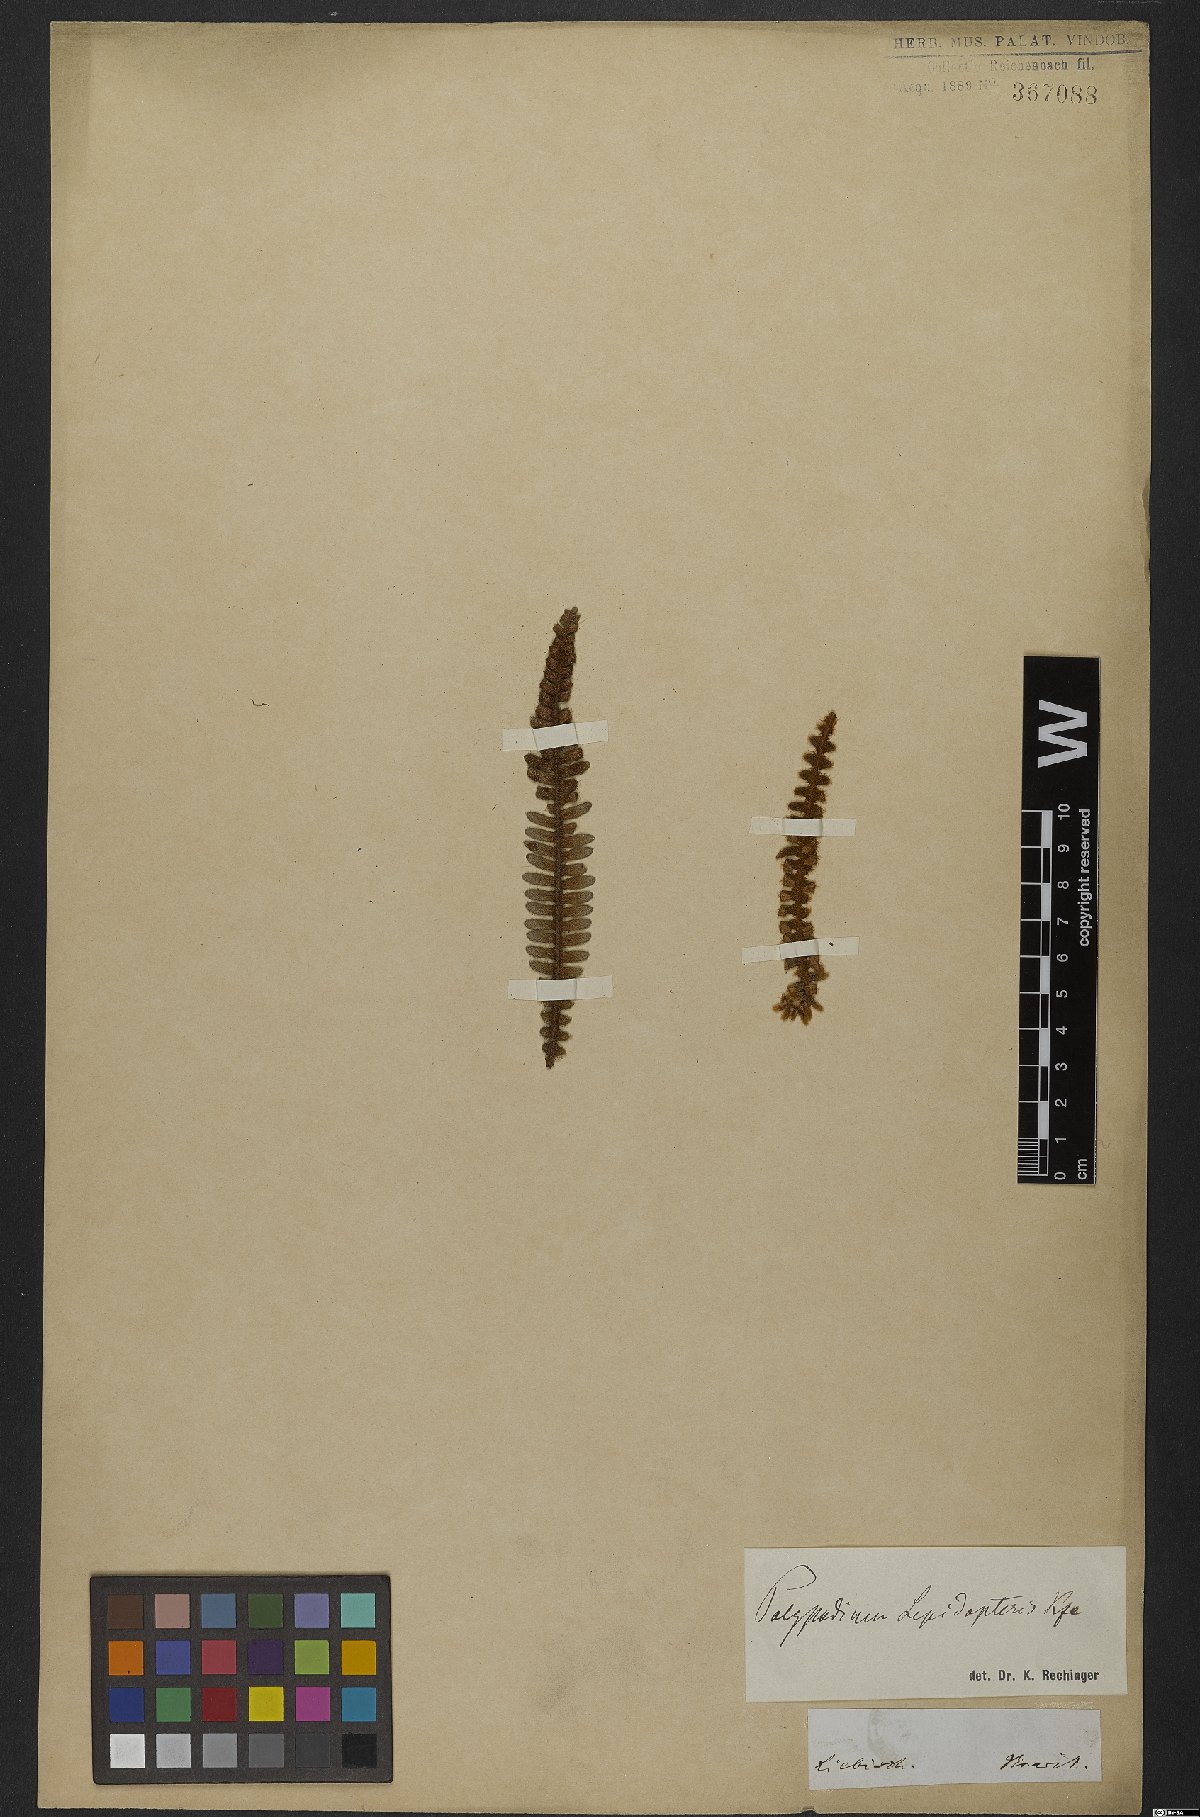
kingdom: Plantae
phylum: Tracheophyta
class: Polypodiopsida
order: Polypodiales
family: Polypodiaceae
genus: Pleopeltis
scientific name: Pleopeltis lepidopteris
